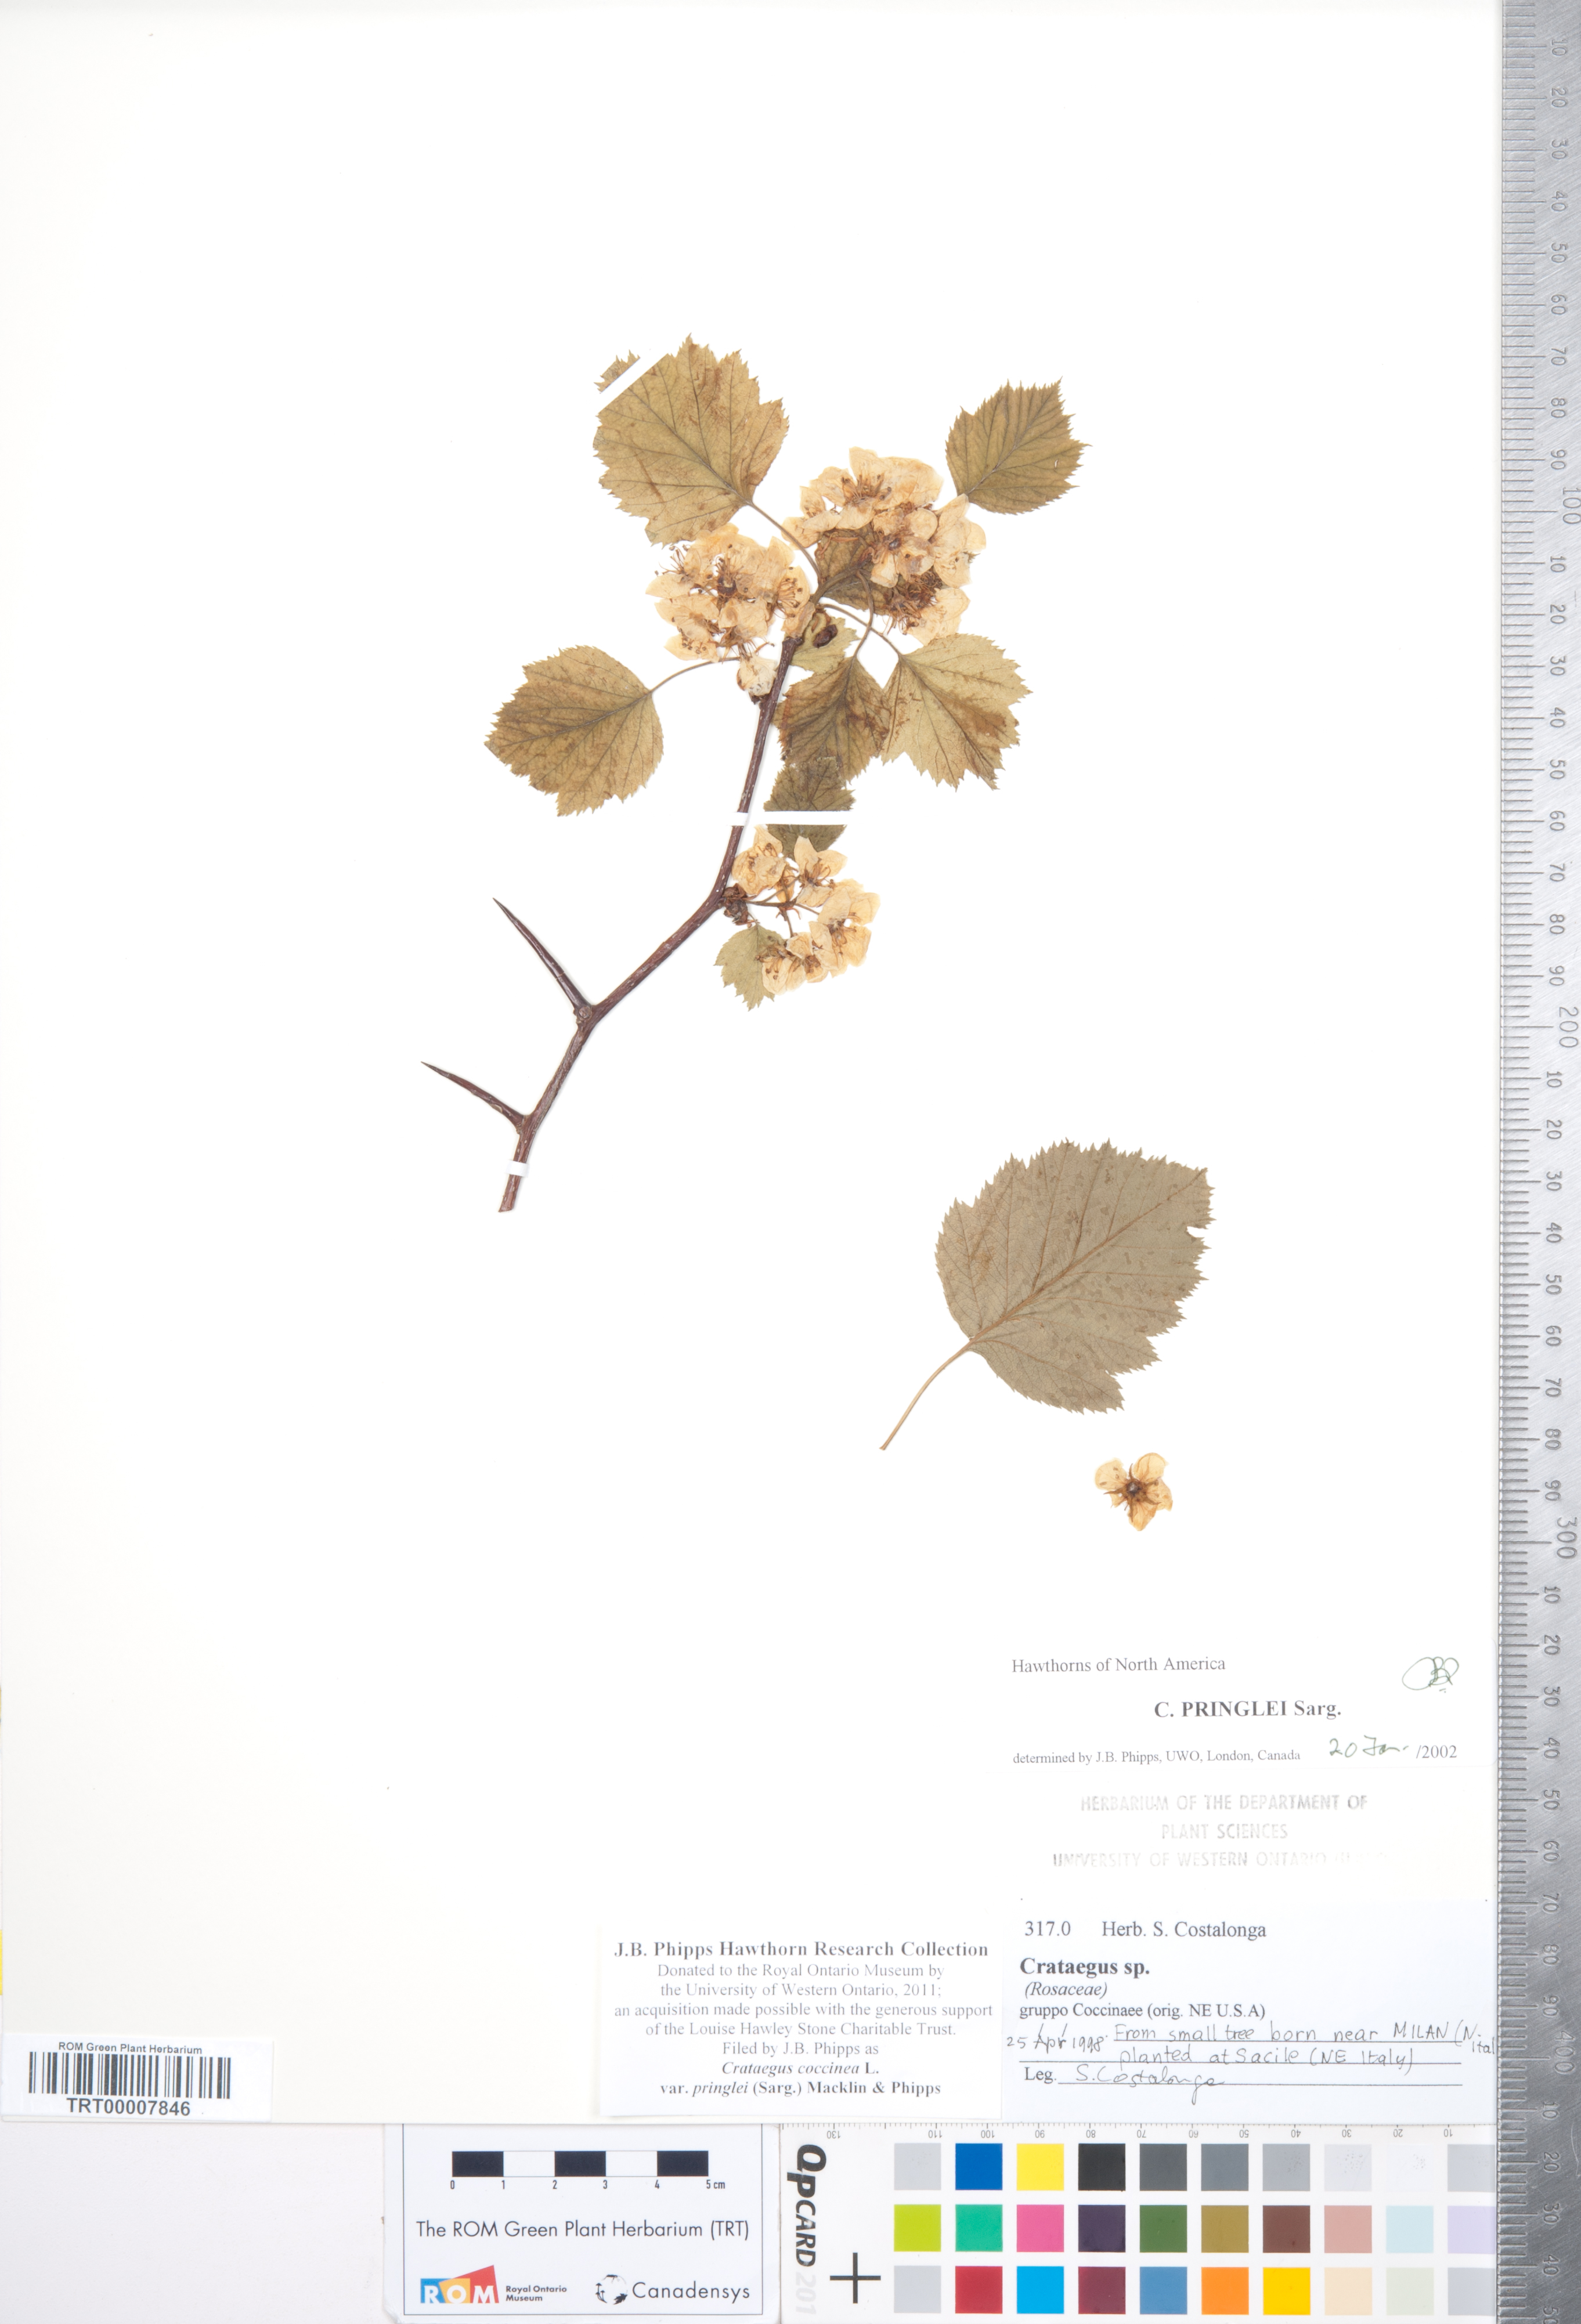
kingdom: Plantae
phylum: Tracheophyta
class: Magnoliopsida
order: Rosales
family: Rosaceae
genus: Crataegus
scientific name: Crataegus coccinea
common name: Scarlet hawthorn
